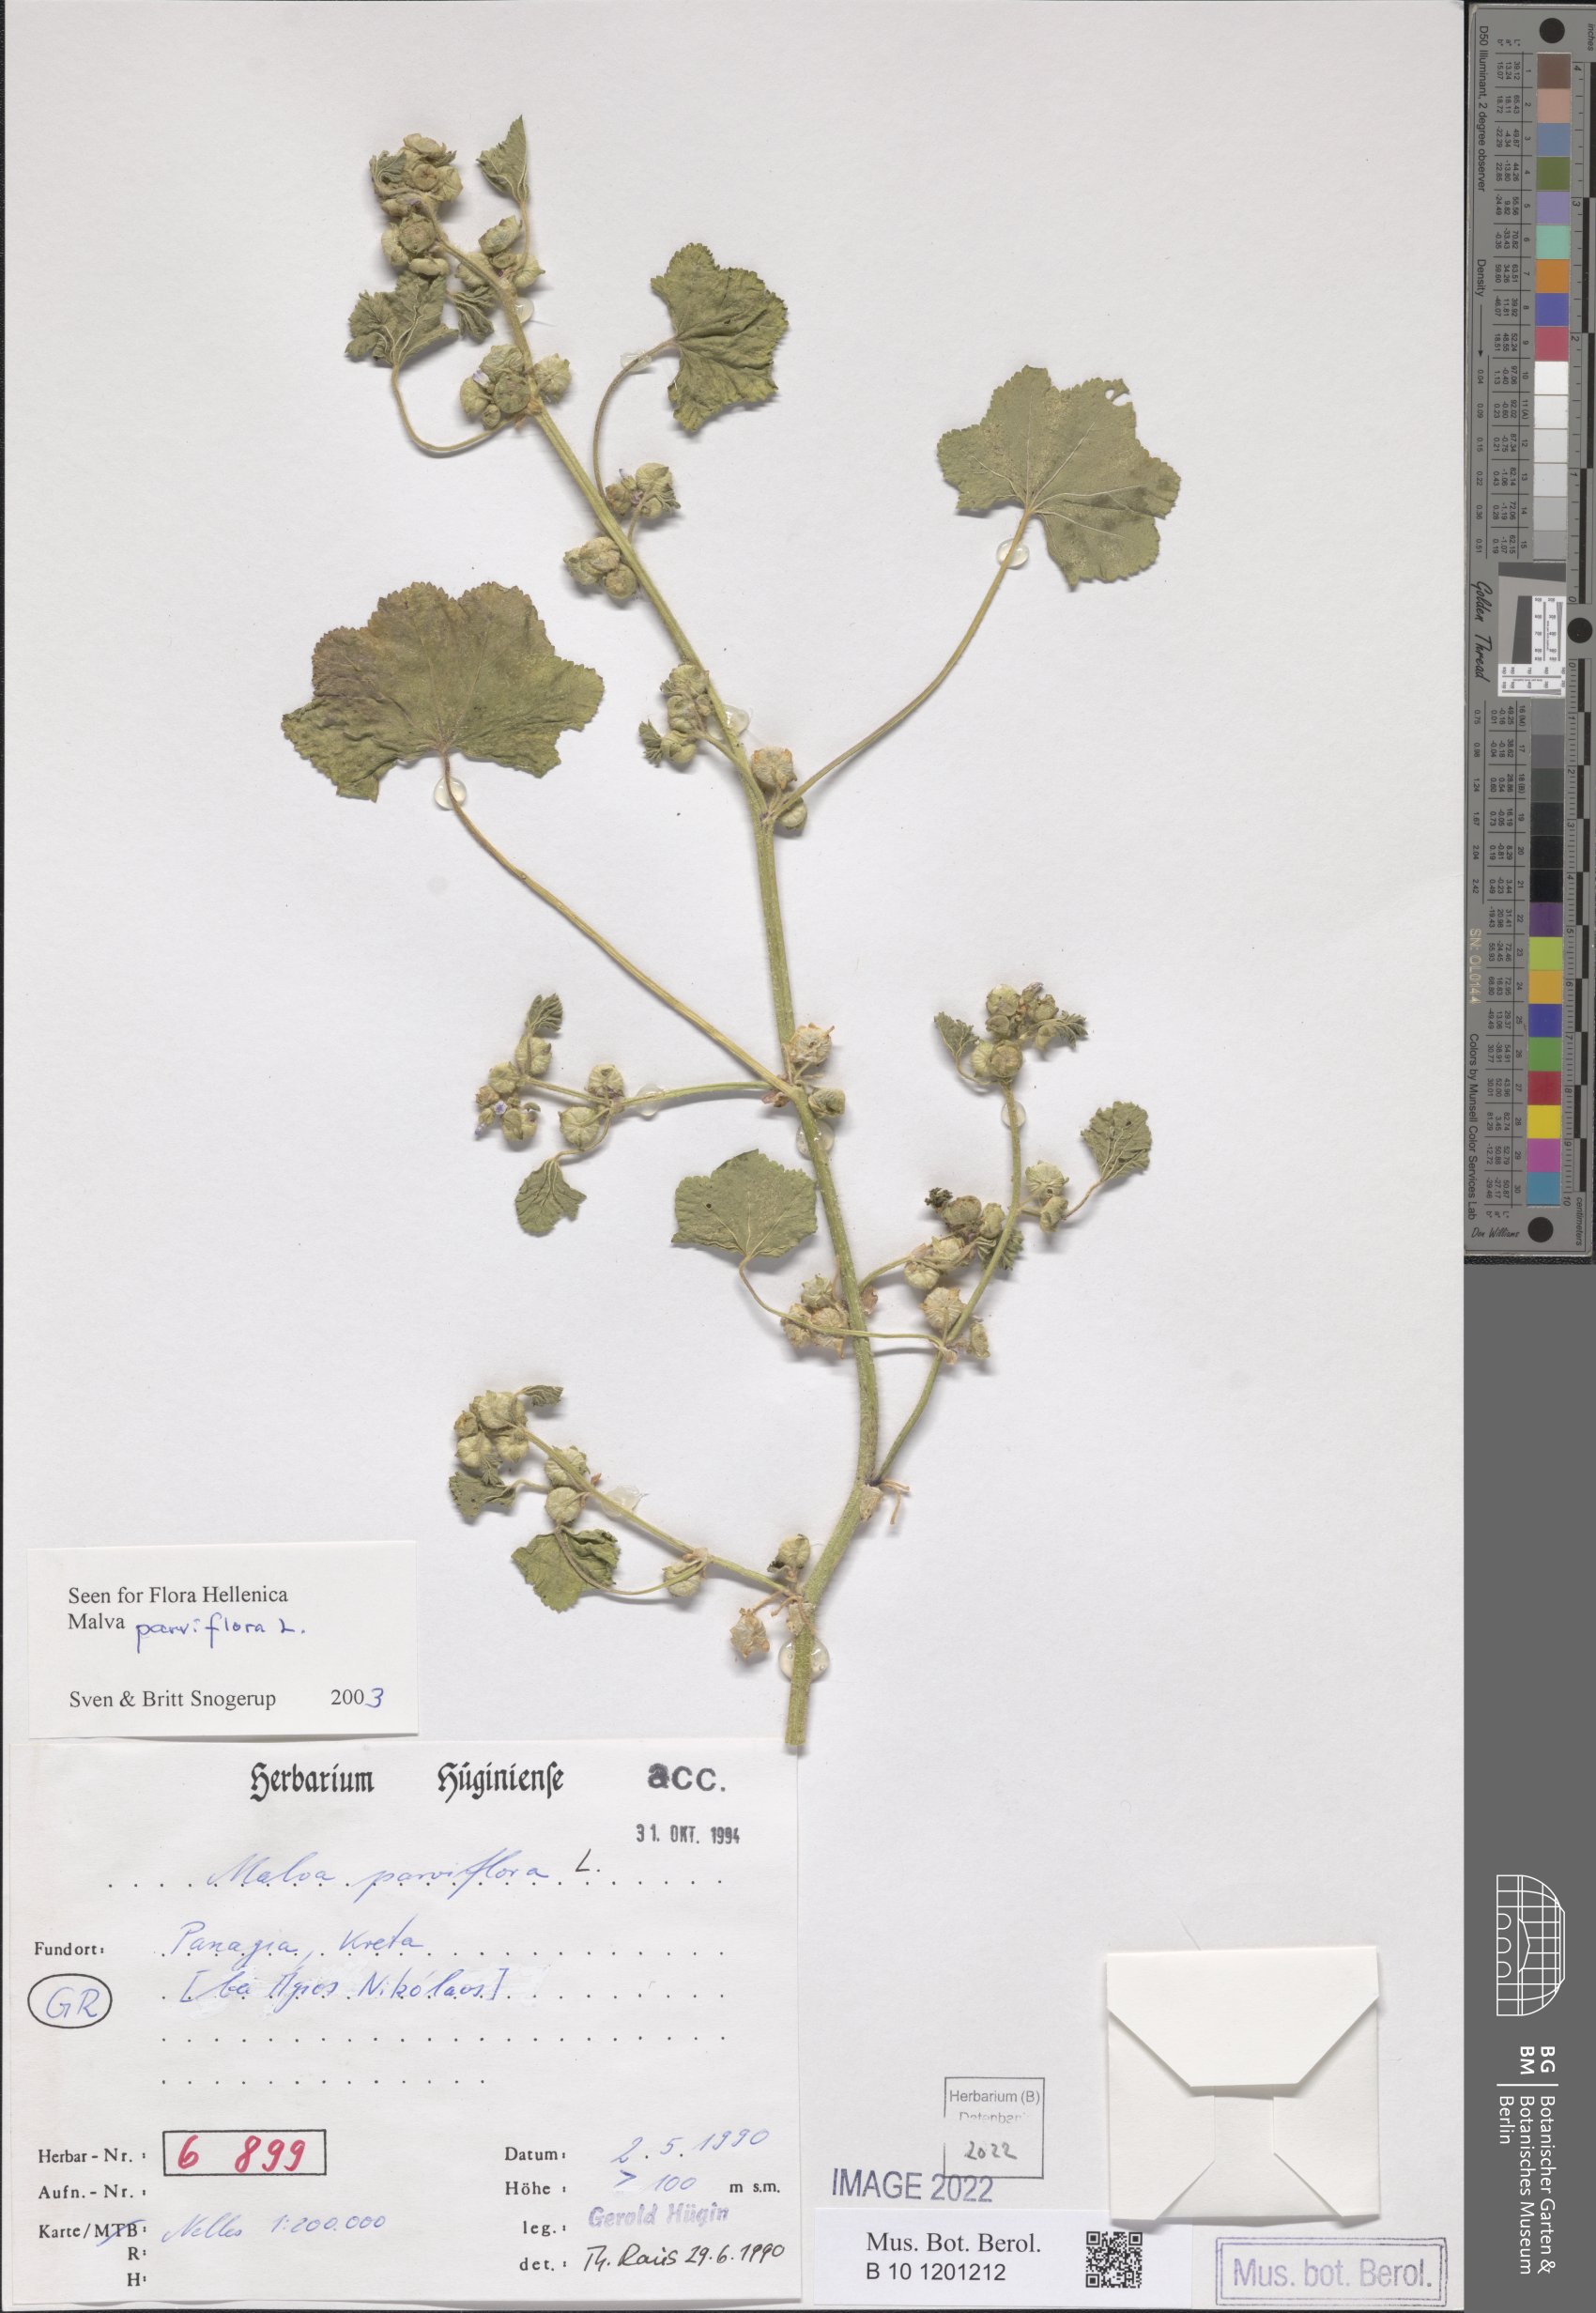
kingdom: Plantae
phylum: Tracheophyta
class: Magnoliopsida
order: Malvales
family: Malvaceae
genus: Malva
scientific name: Malva parviflora
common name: Least mallow
